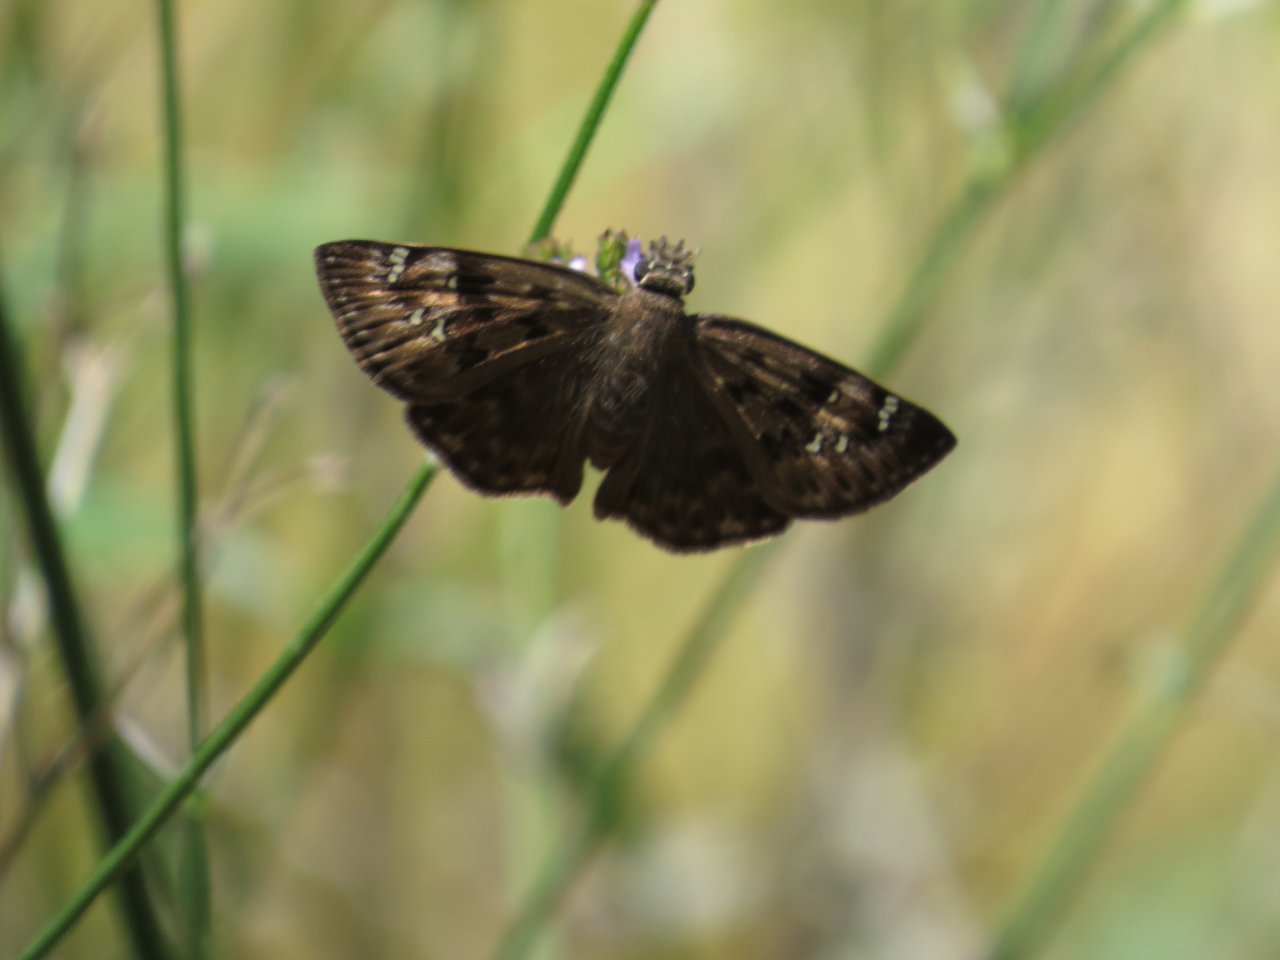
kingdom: Animalia
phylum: Arthropoda
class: Insecta
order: Lepidoptera
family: Hesperiidae
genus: Gesta
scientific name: Gesta
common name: Horace's Duskywing
